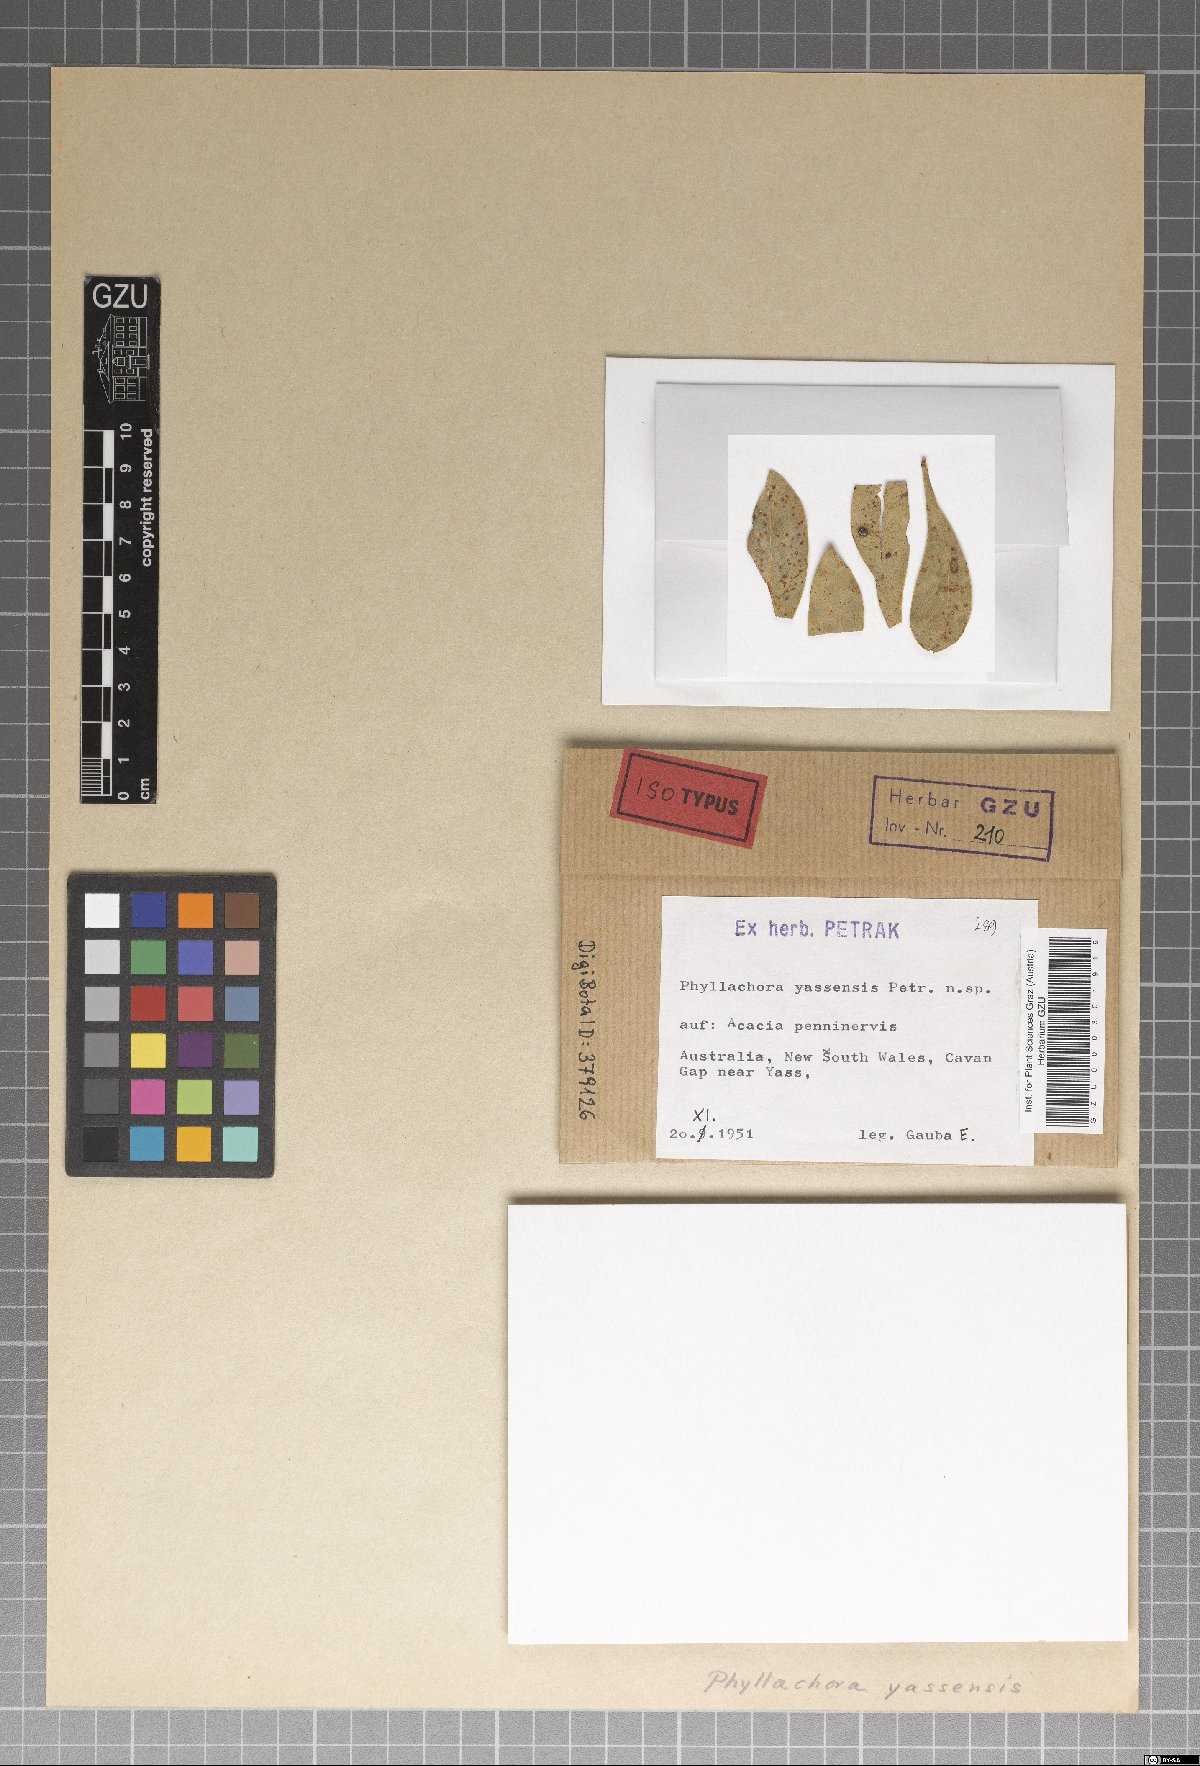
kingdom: Fungi
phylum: Ascomycota
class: Sordariomycetes
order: Phyllachorales
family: Phyllachoraceae
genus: Phyllachora
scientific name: Phyllachora yassensis
